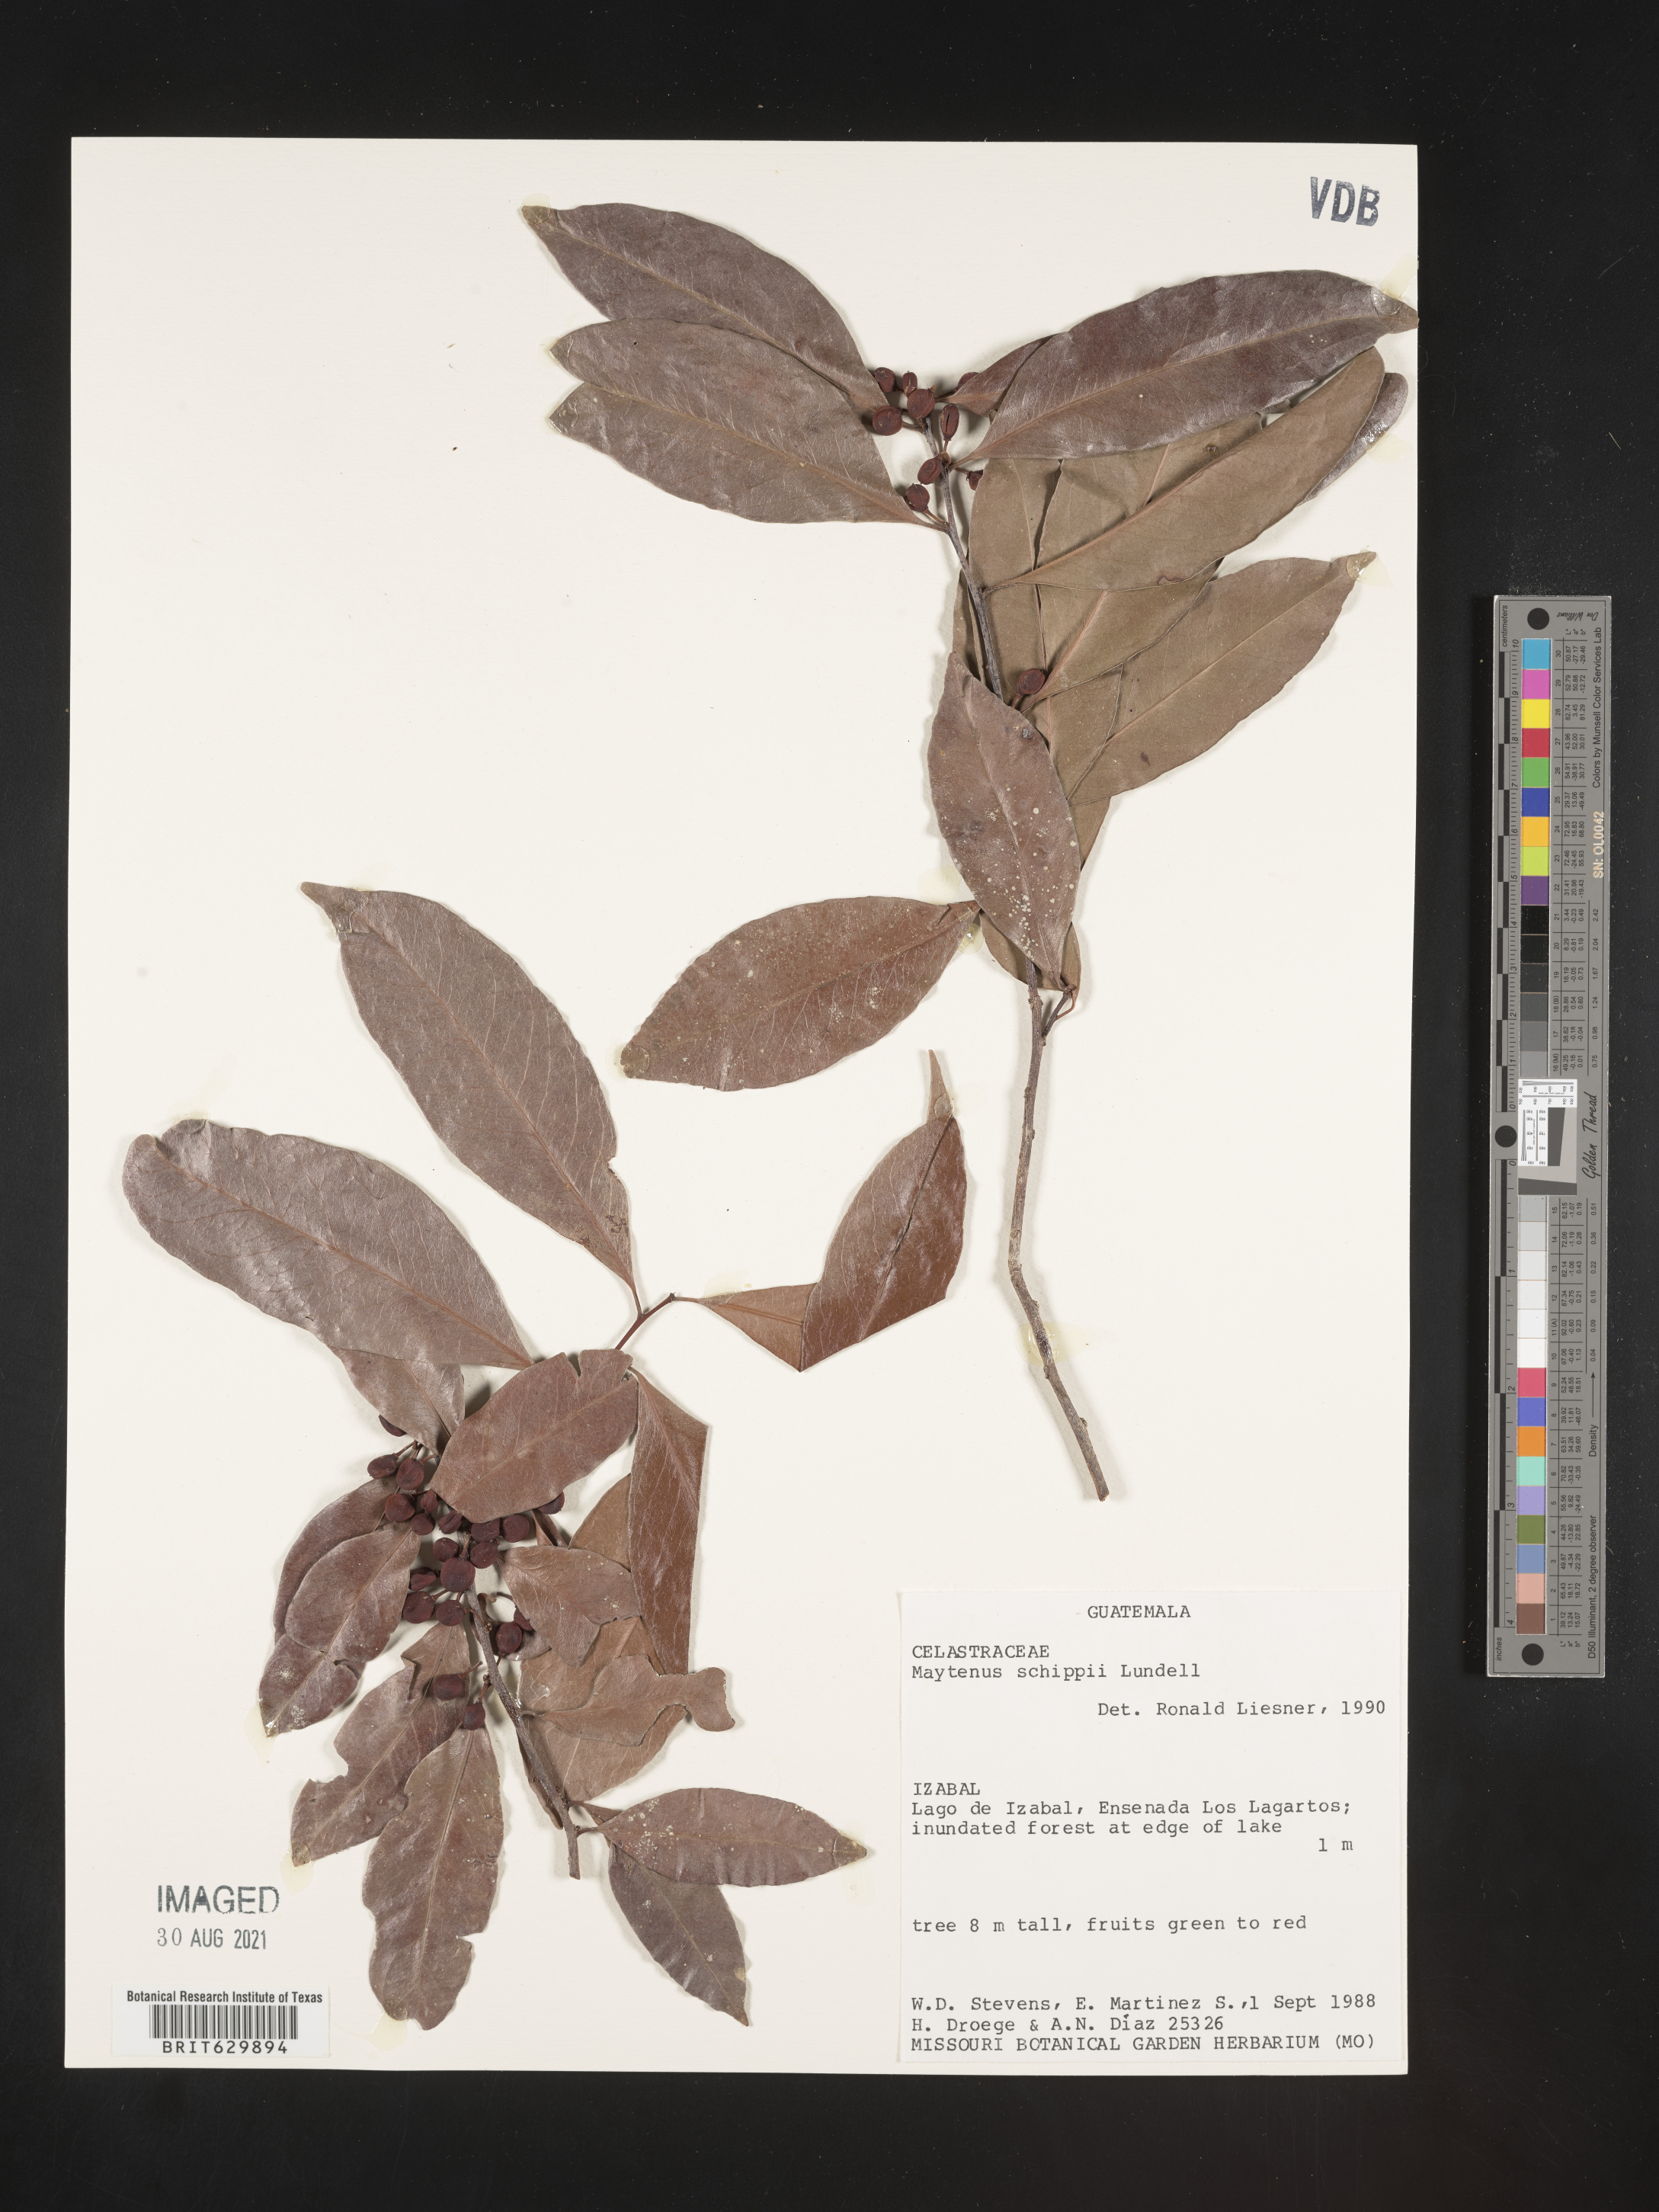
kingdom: Plantae
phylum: Tracheophyta
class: Magnoliopsida
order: Celastrales
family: Celastraceae
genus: Monteverdia
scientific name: Monteverdia schippii
